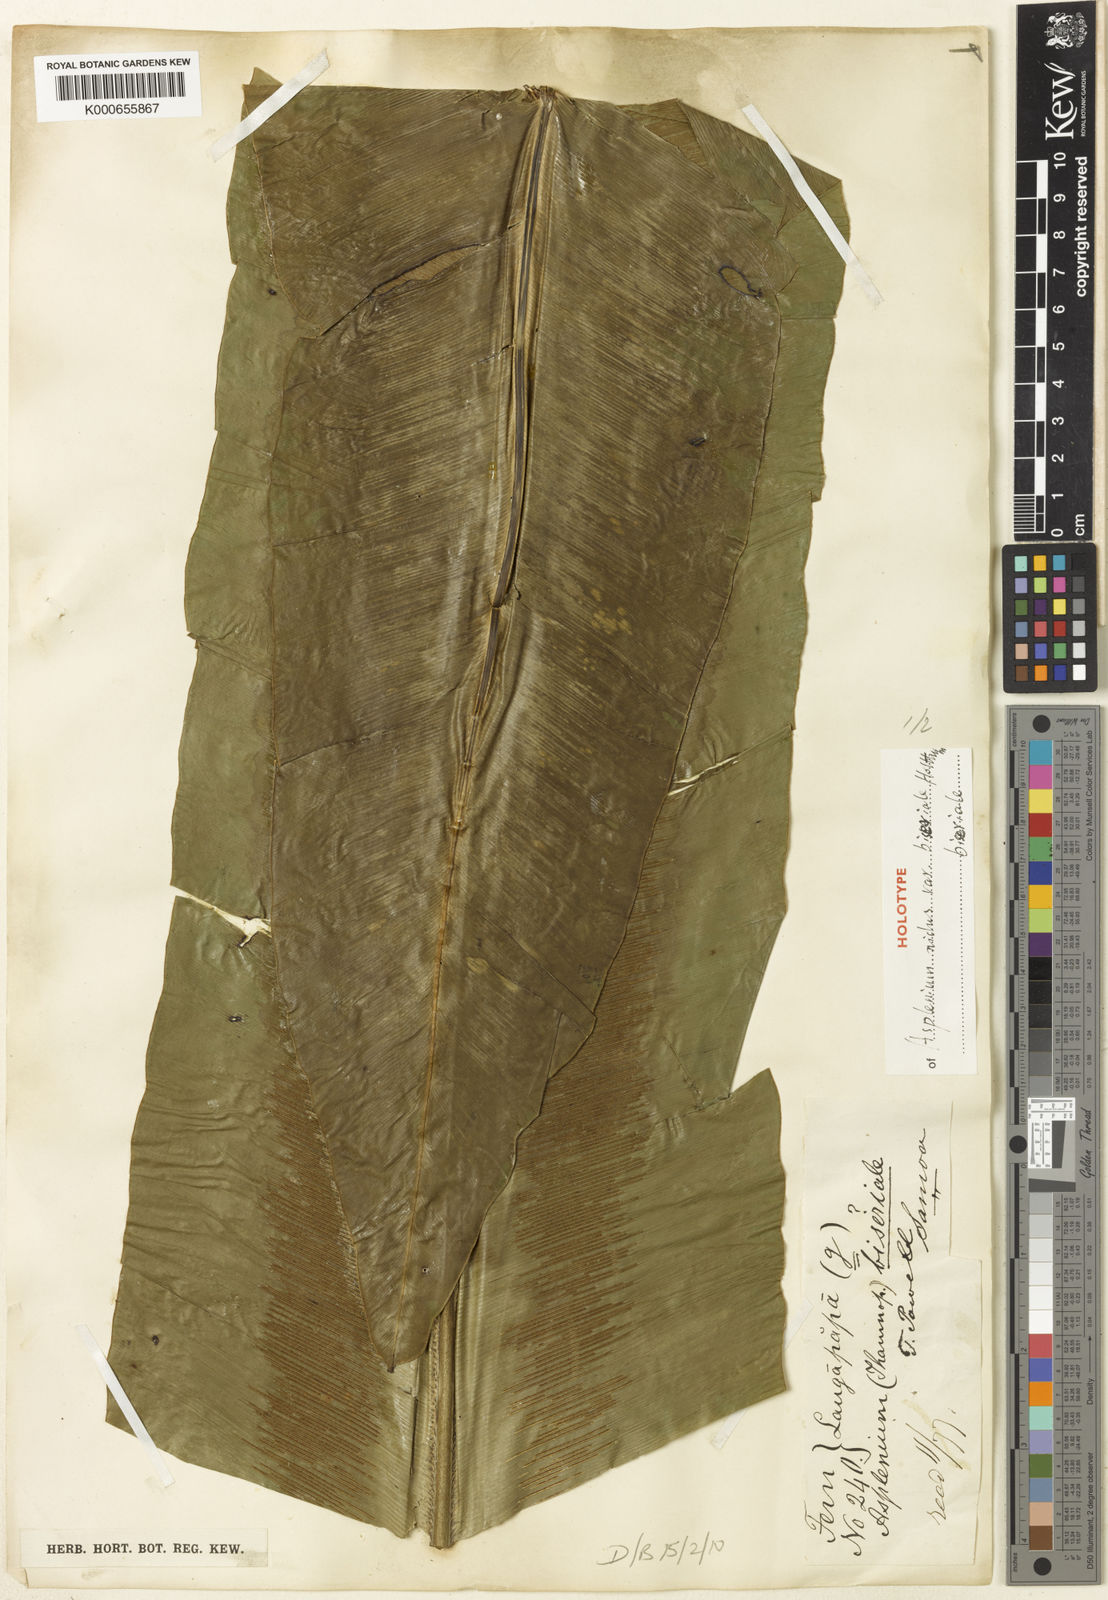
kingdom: Plantae
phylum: Tracheophyta
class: Polypodiopsida
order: Polypodiales
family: Aspleniaceae
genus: Asplenium
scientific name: Asplenium nidus
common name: Bird's-nest fern
